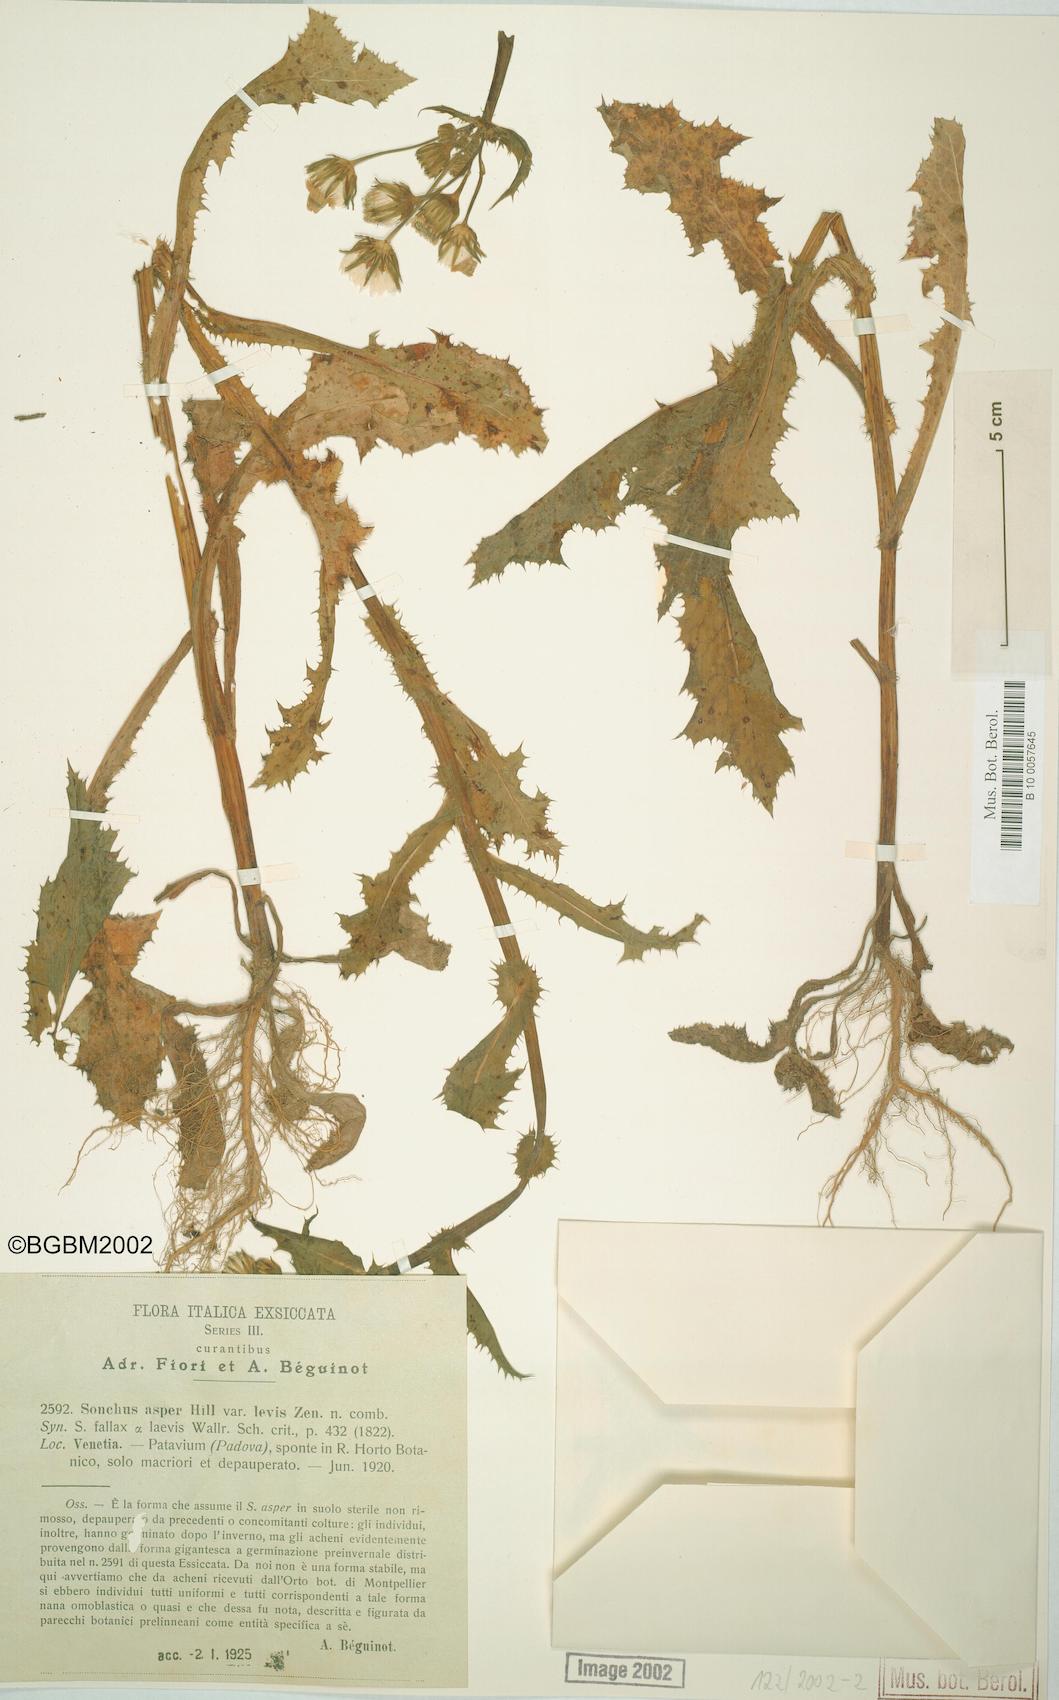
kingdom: Plantae
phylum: Tracheophyta
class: Magnoliopsida
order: Asterales
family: Asteraceae
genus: Sonchus
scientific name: Sonchus asper
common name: Prickly sow-thistle
